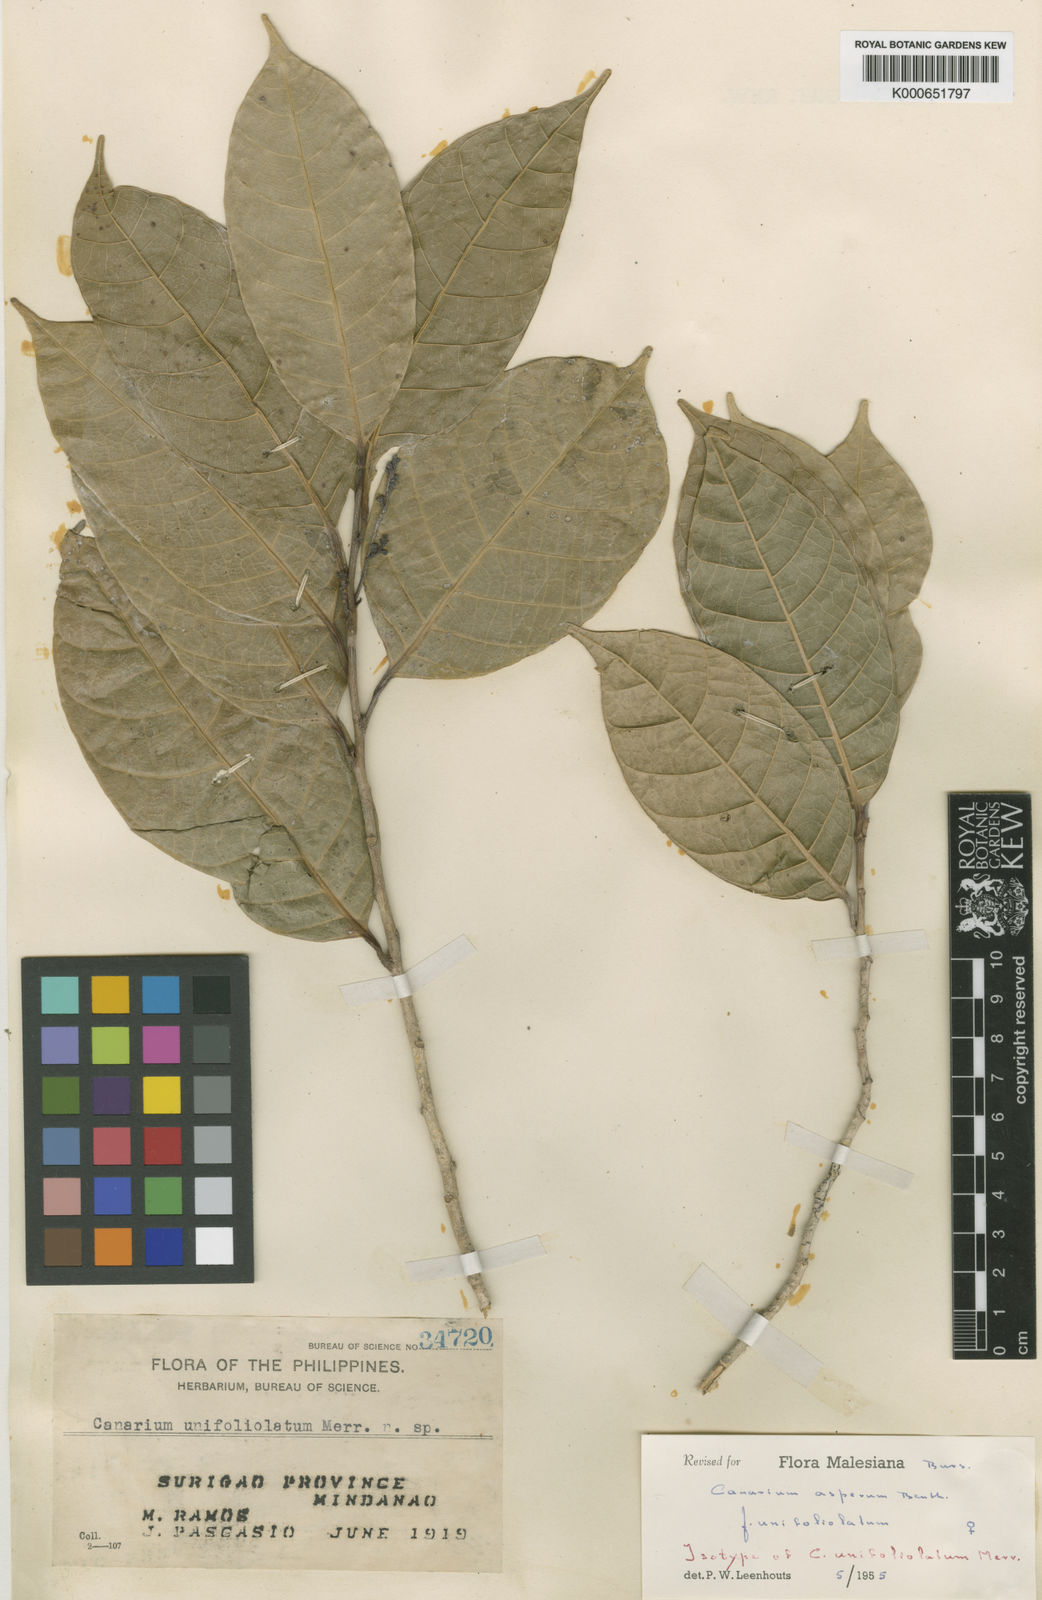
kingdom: Plantae
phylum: Tracheophyta
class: Magnoliopsida
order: Sapindales
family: Burseraceae
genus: Canarium
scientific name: Canarium asperum
